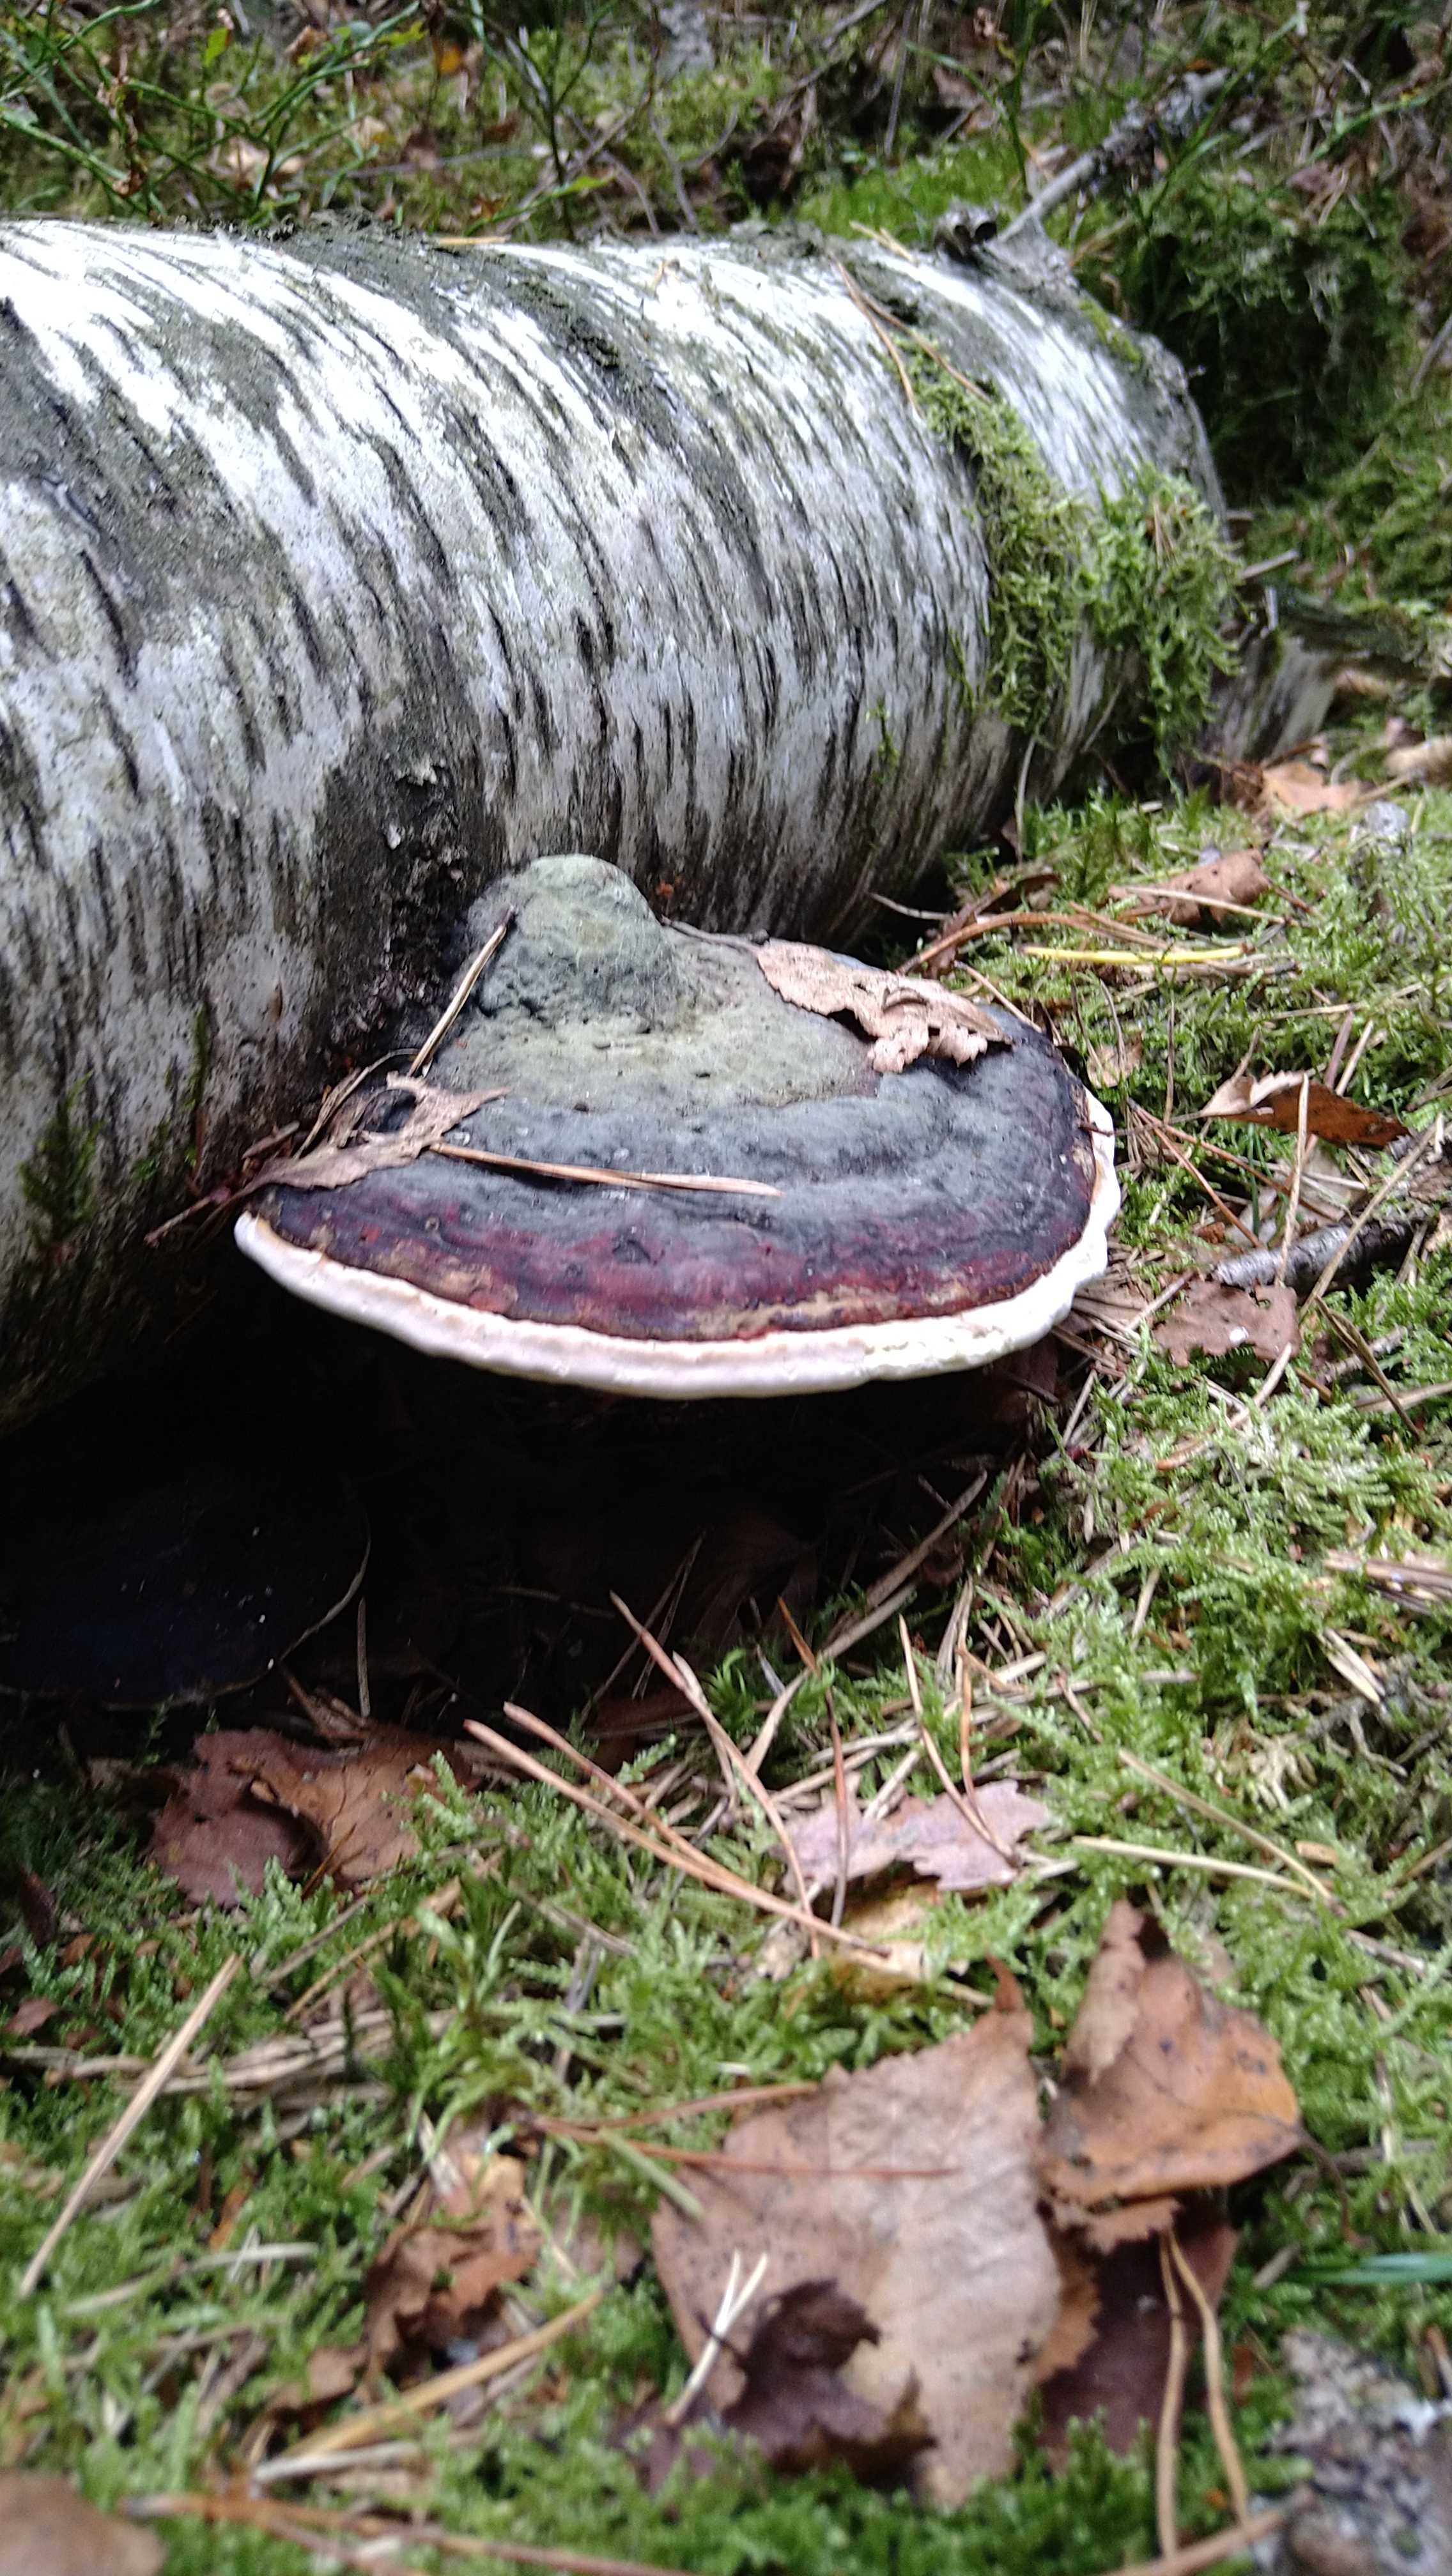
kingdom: Fungi
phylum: Basidiomycota
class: Agaricomycetes
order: Polyporales
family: Fomitopsidaceae
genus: Fomitopsis
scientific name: Fomitopsis pinicola
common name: randbæltet hovporesvamp
